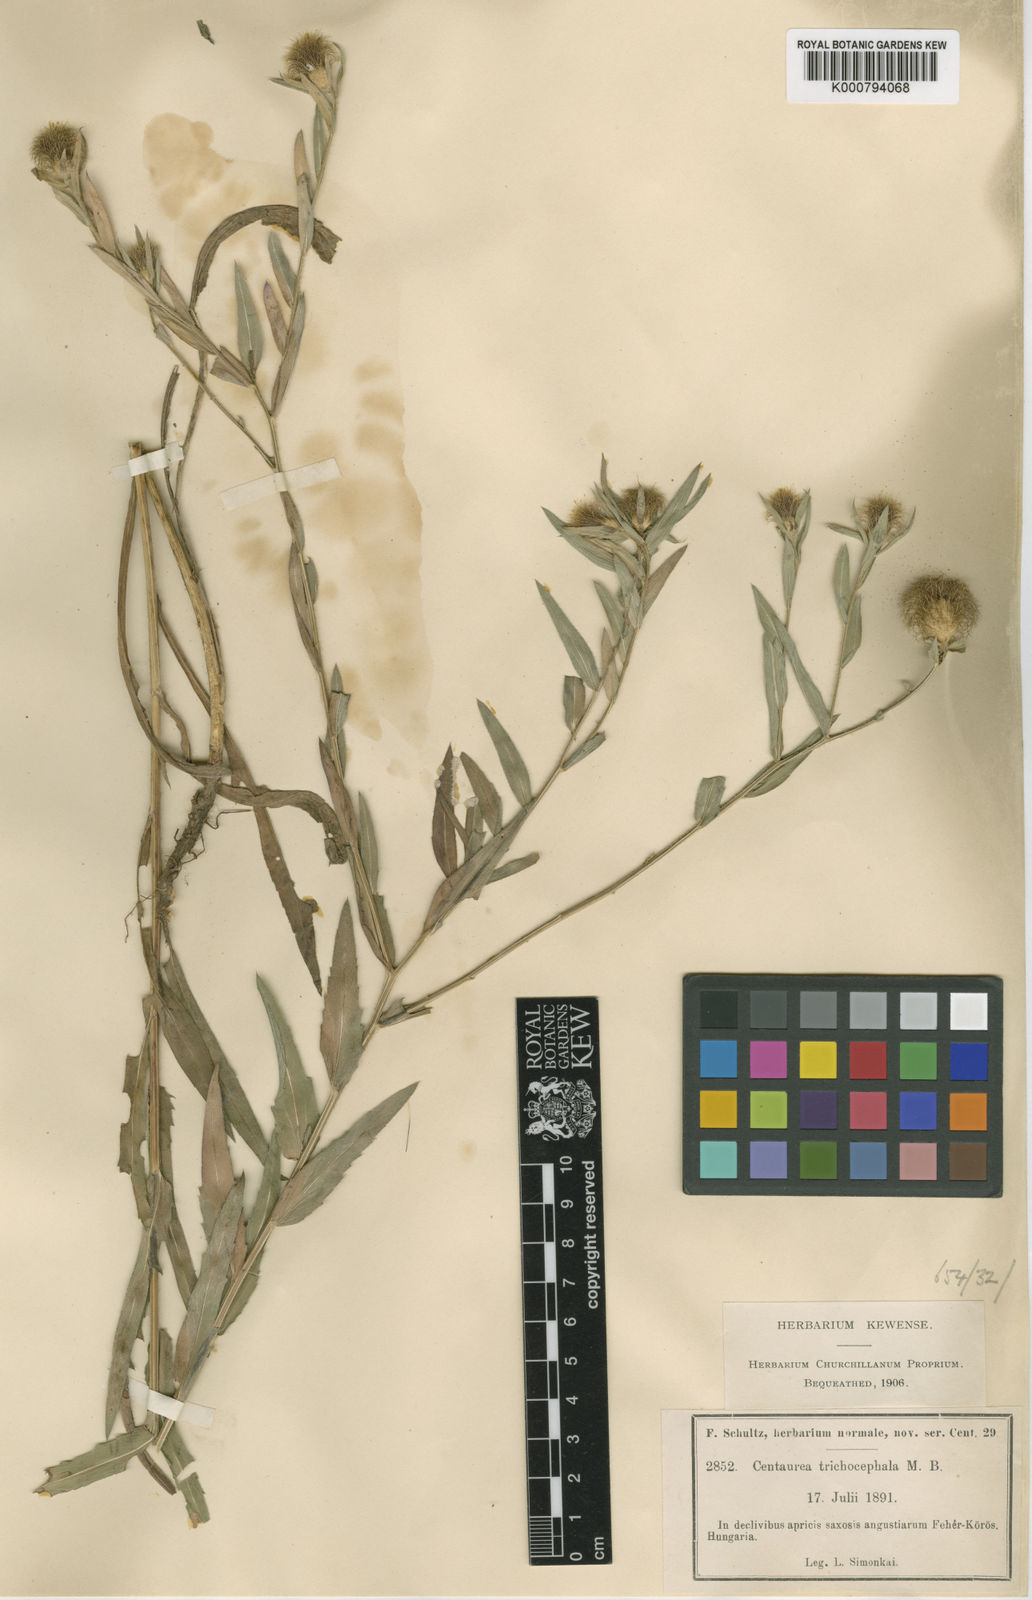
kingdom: Plantae
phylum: Tracheophyta
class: Magnoliopsida
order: Asterales
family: Asteraceae
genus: Centaurea
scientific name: Centaurea trichocephala
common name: Feather-head knapweed
